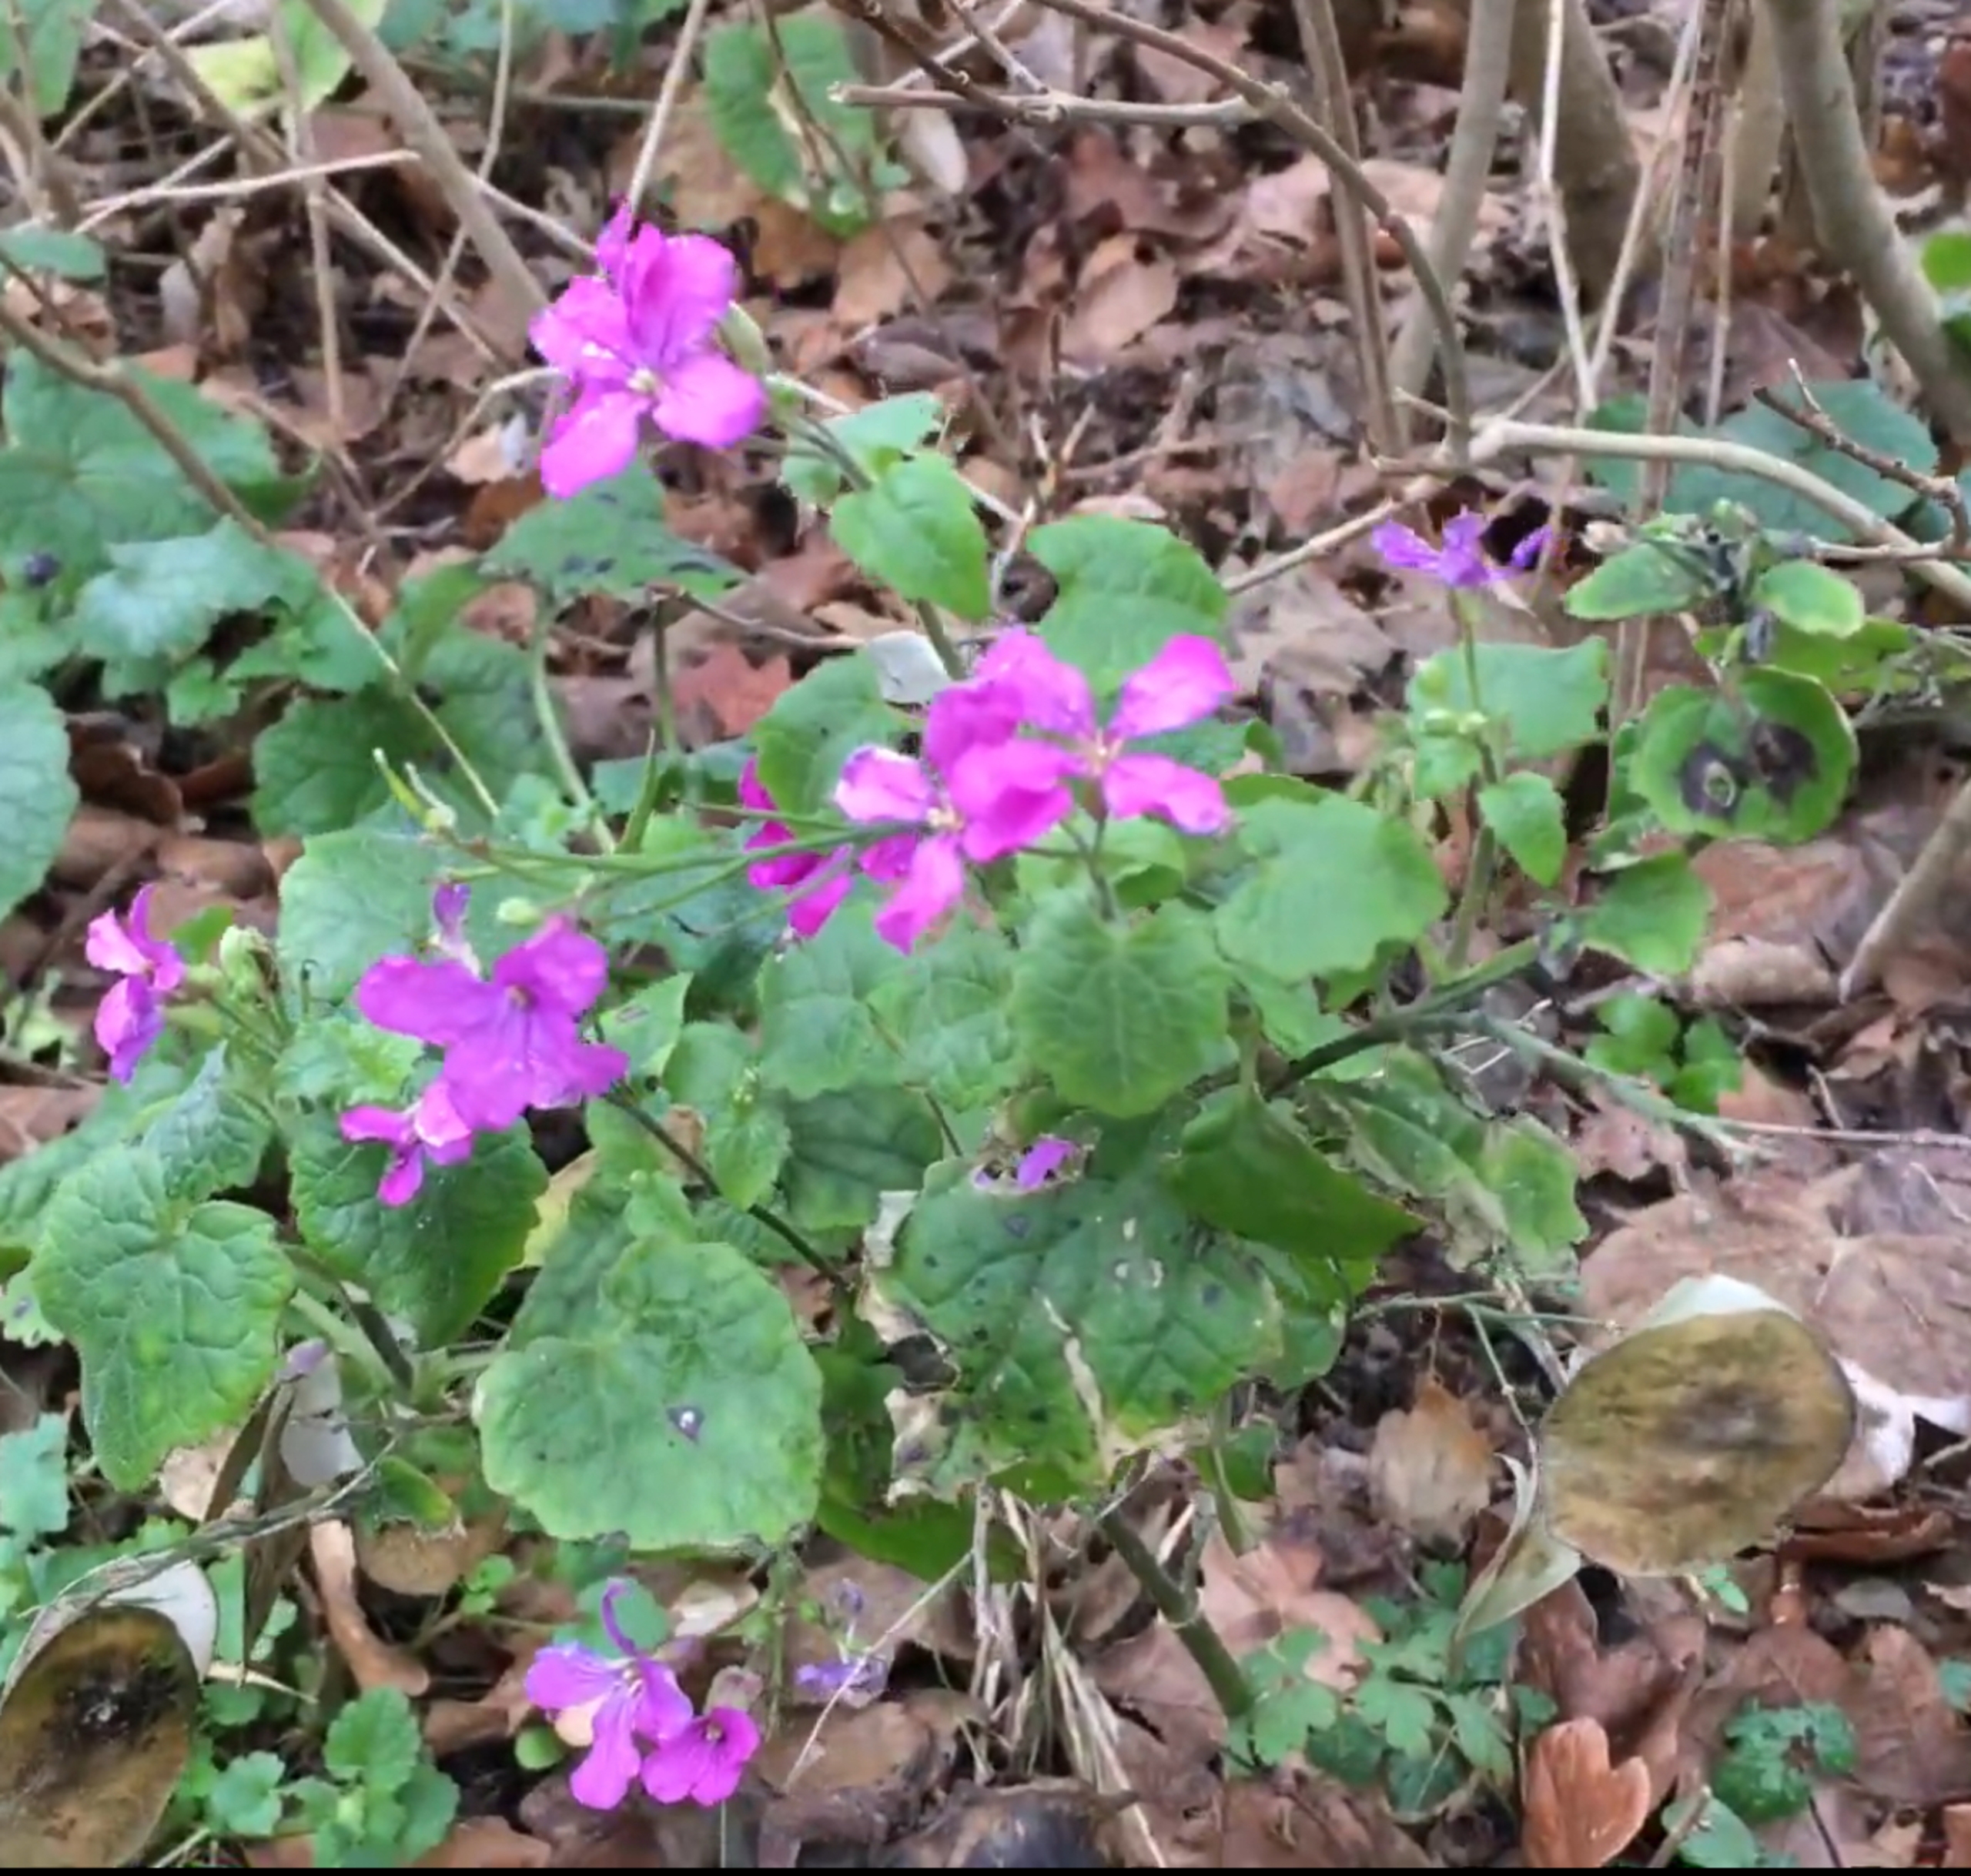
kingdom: Plantae
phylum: Tracheophyta
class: Magnoliopsida
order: Brassicales
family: Brassicaceae
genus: Lunaria
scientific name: Lunaria annua
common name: Judaspenge
